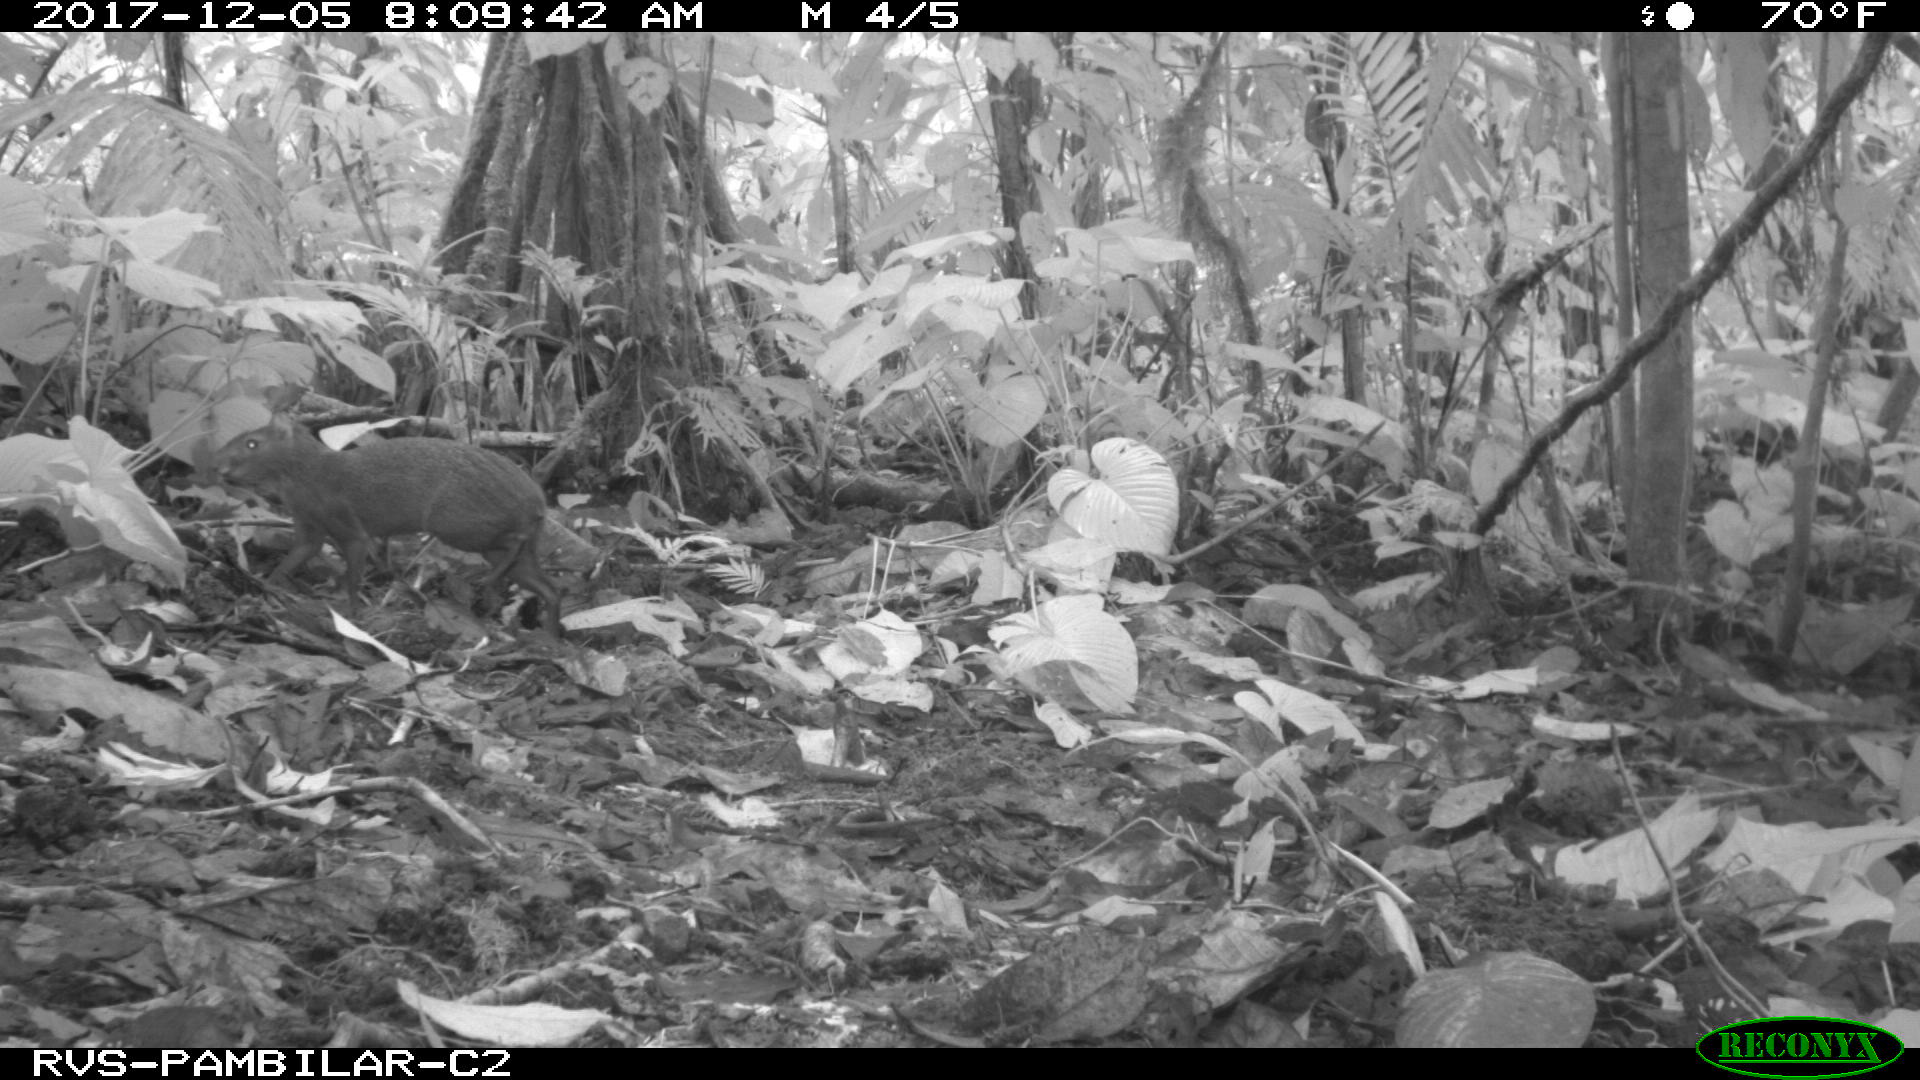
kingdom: Animalia
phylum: Chordata
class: Mammalia
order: Rodentia
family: Dasyproctidae
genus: Dasyprocta
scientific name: Dasyprocta punctata
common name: Central american agouti
